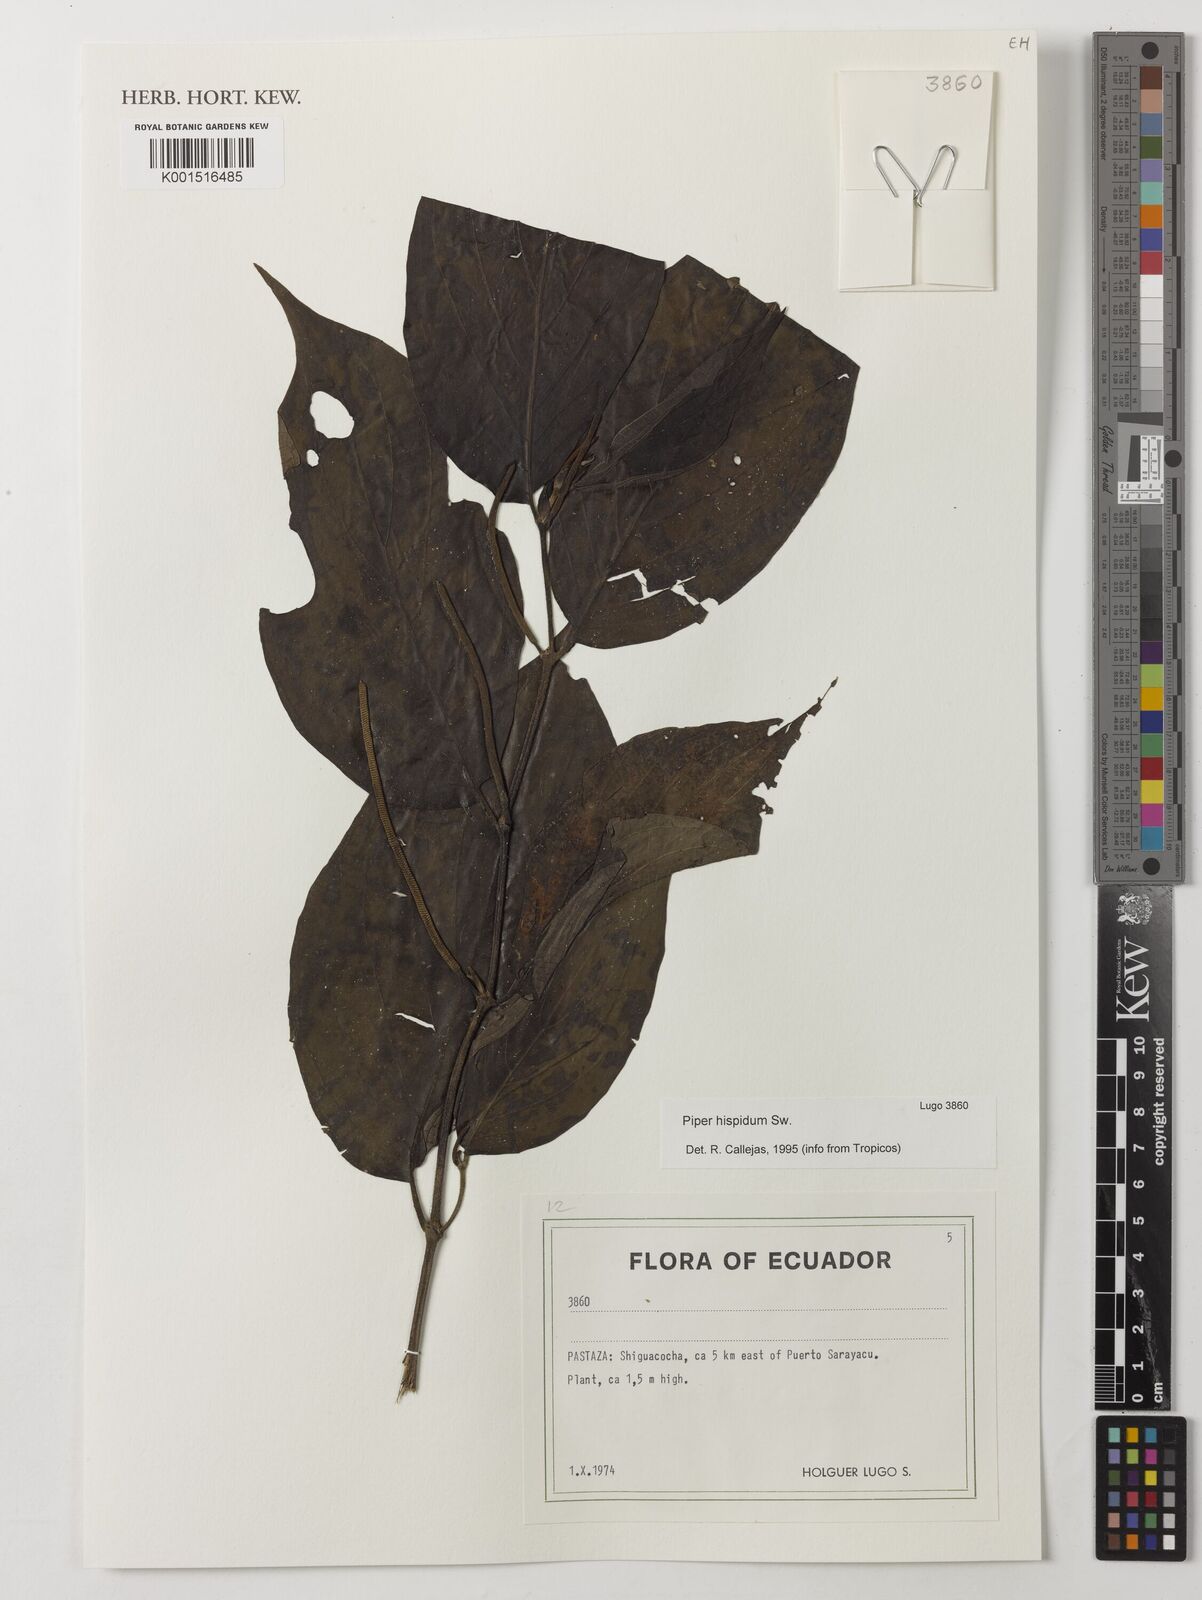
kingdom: Plantae
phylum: Tracheophyta
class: Magnoliopsida
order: Piperales
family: Piperaceae
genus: Piper
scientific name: Piper hispidum
